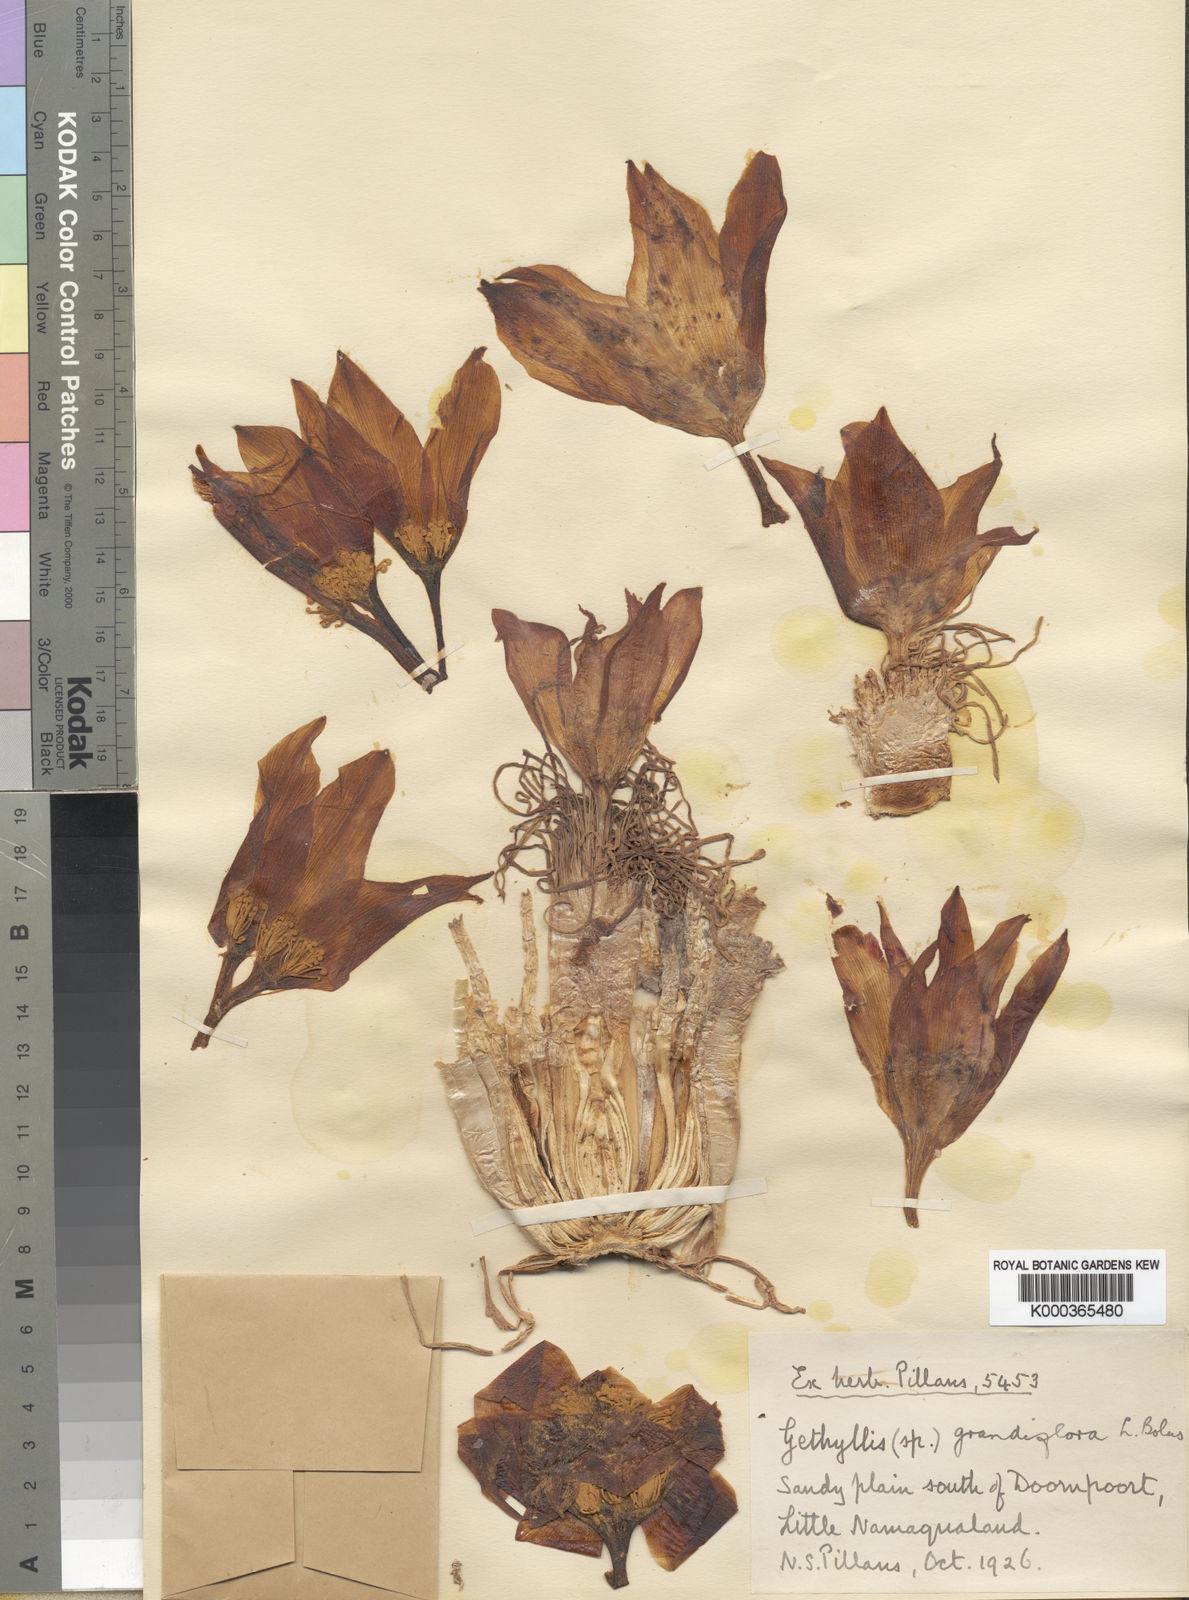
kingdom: Plantae
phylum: Tracheophyta
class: Liliopsida
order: Asparagales
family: Amaryllidaceae
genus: Gethyllis
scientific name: Gethyllis grandiflora
